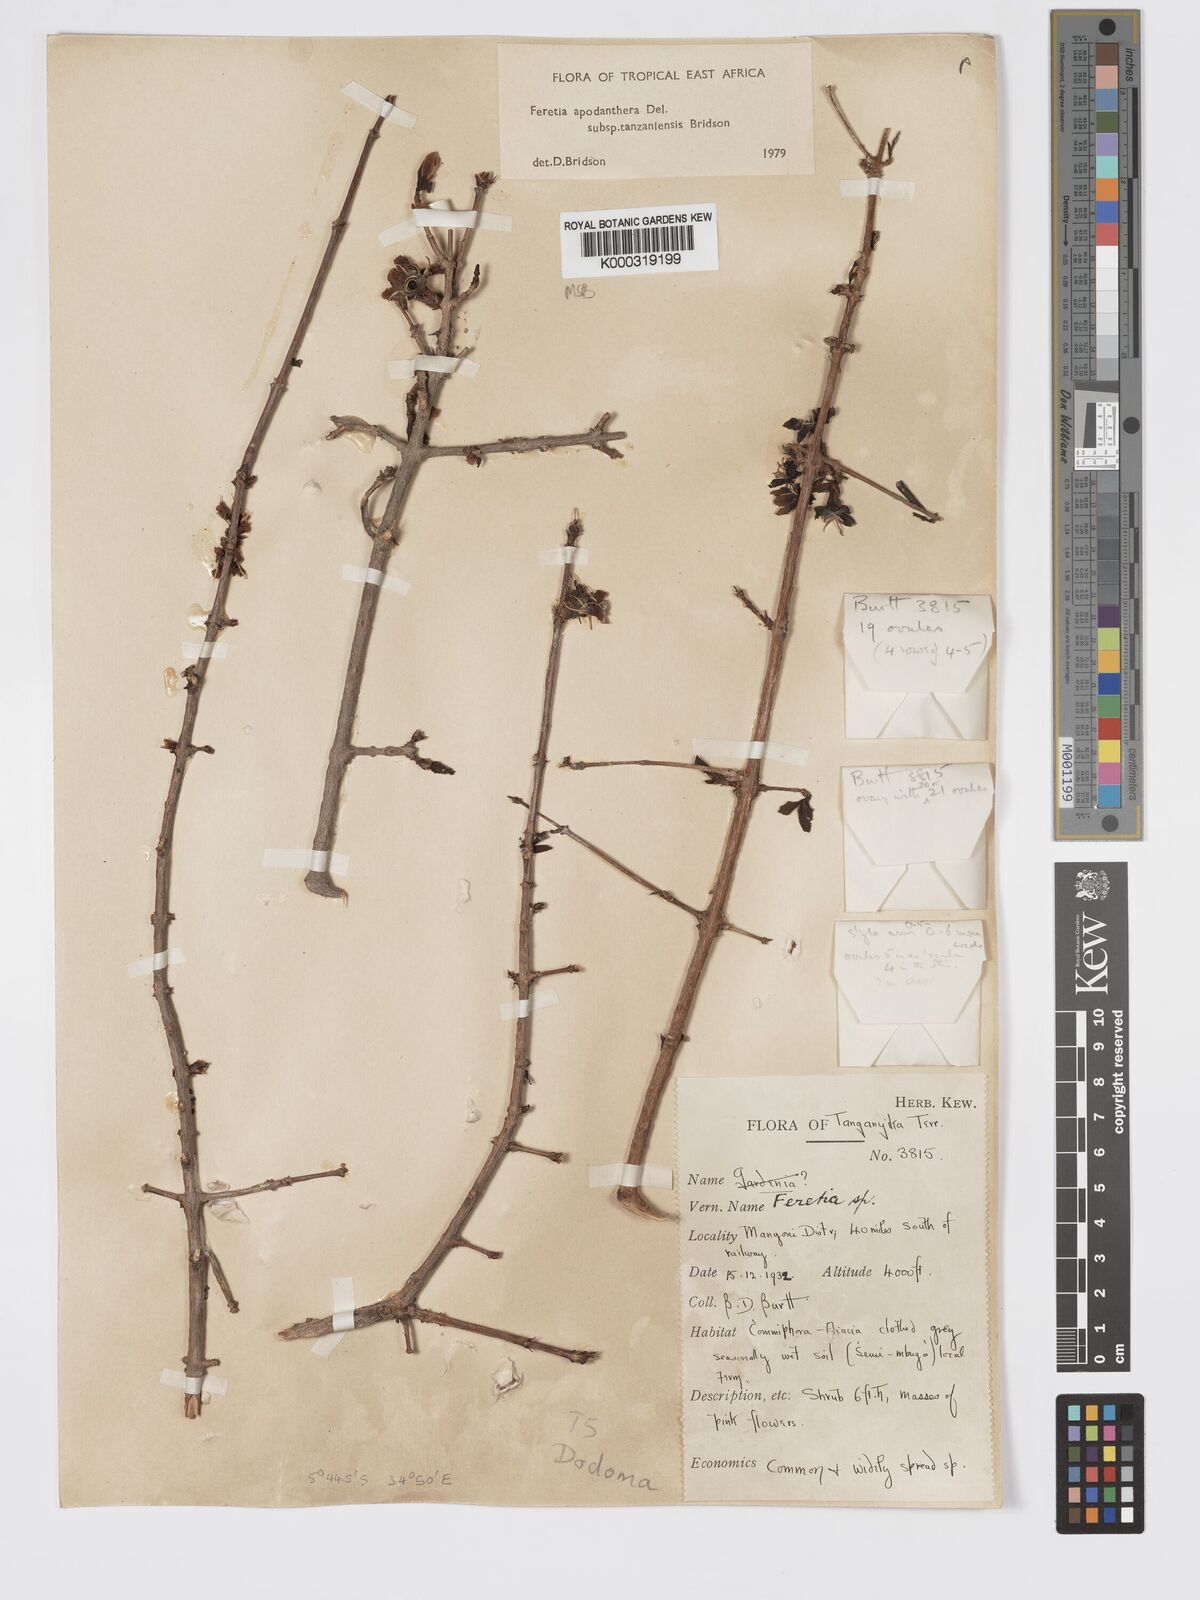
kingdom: Plantae
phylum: Tracheophyta
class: Magnoliopsida
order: Gentianales
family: Rubiaceae
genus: Feretia
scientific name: Feretia apodanthera
